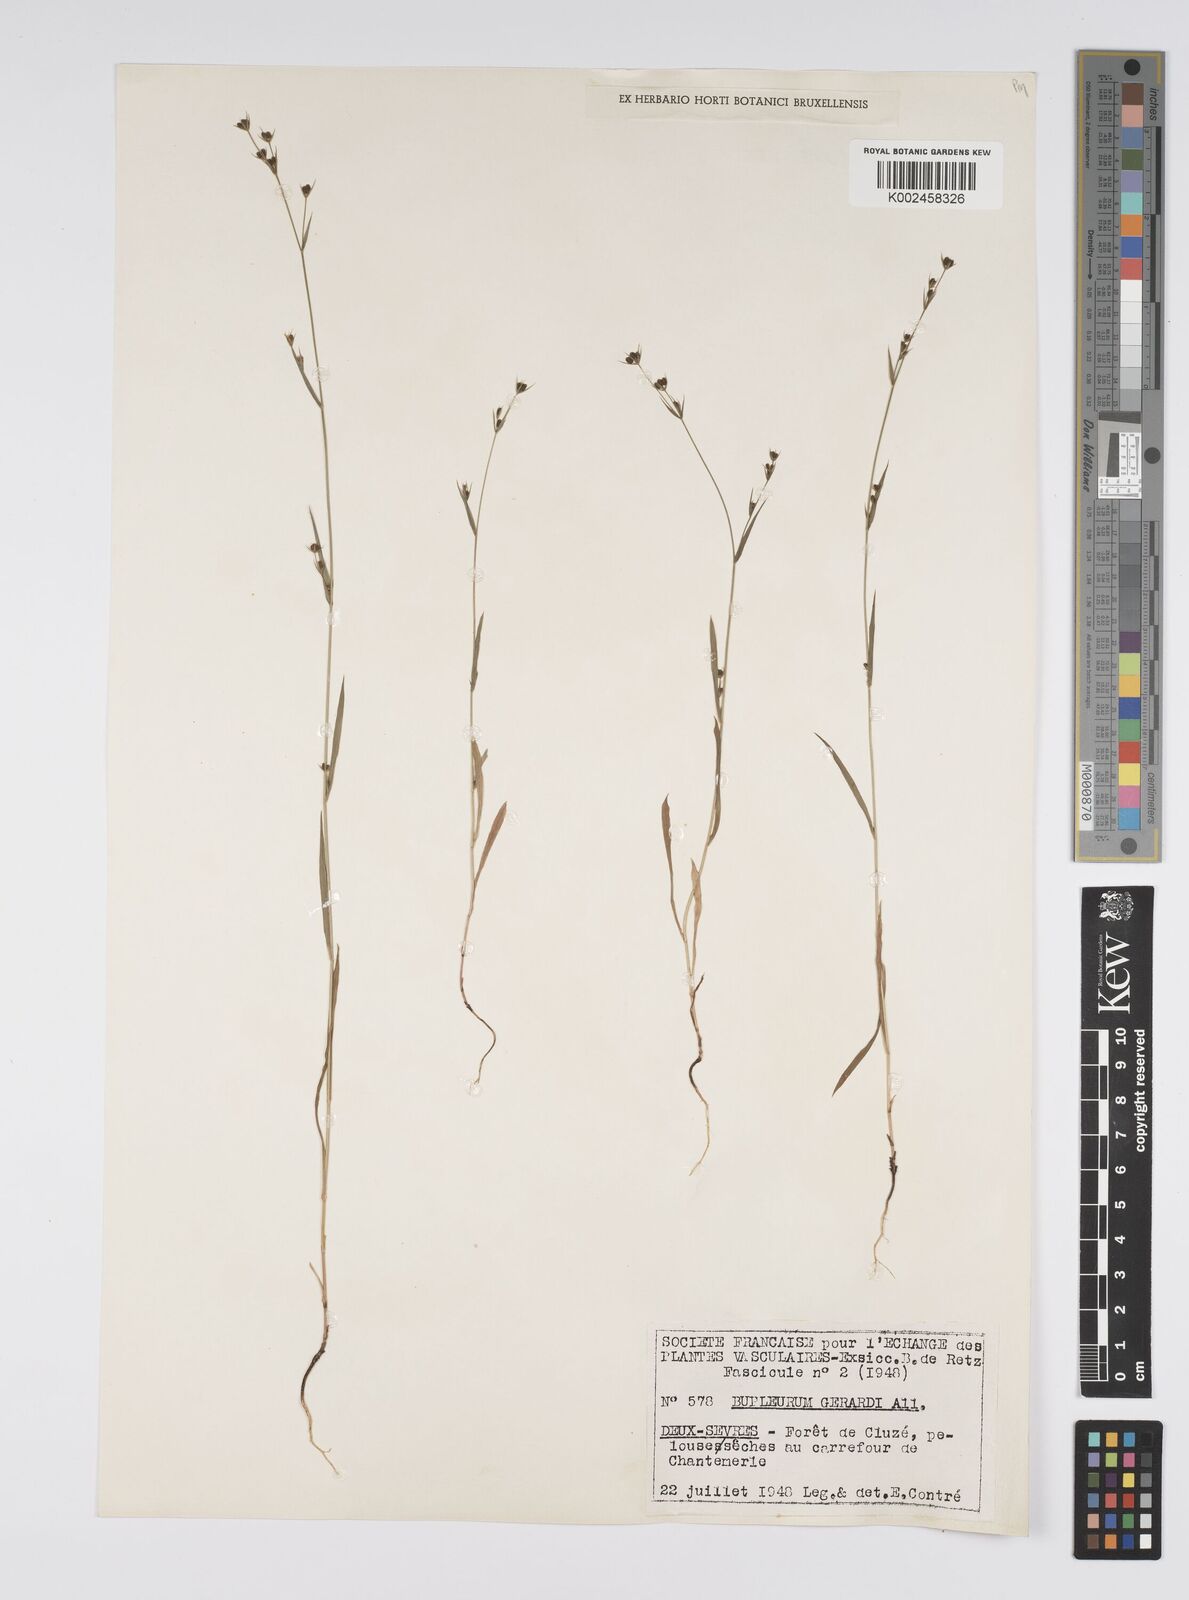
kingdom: Plantae
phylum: Tracheophyta
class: Magnoliopsida
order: Apiales
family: Apiaceae
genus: Bupleurum
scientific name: Bupleurum gerardi
